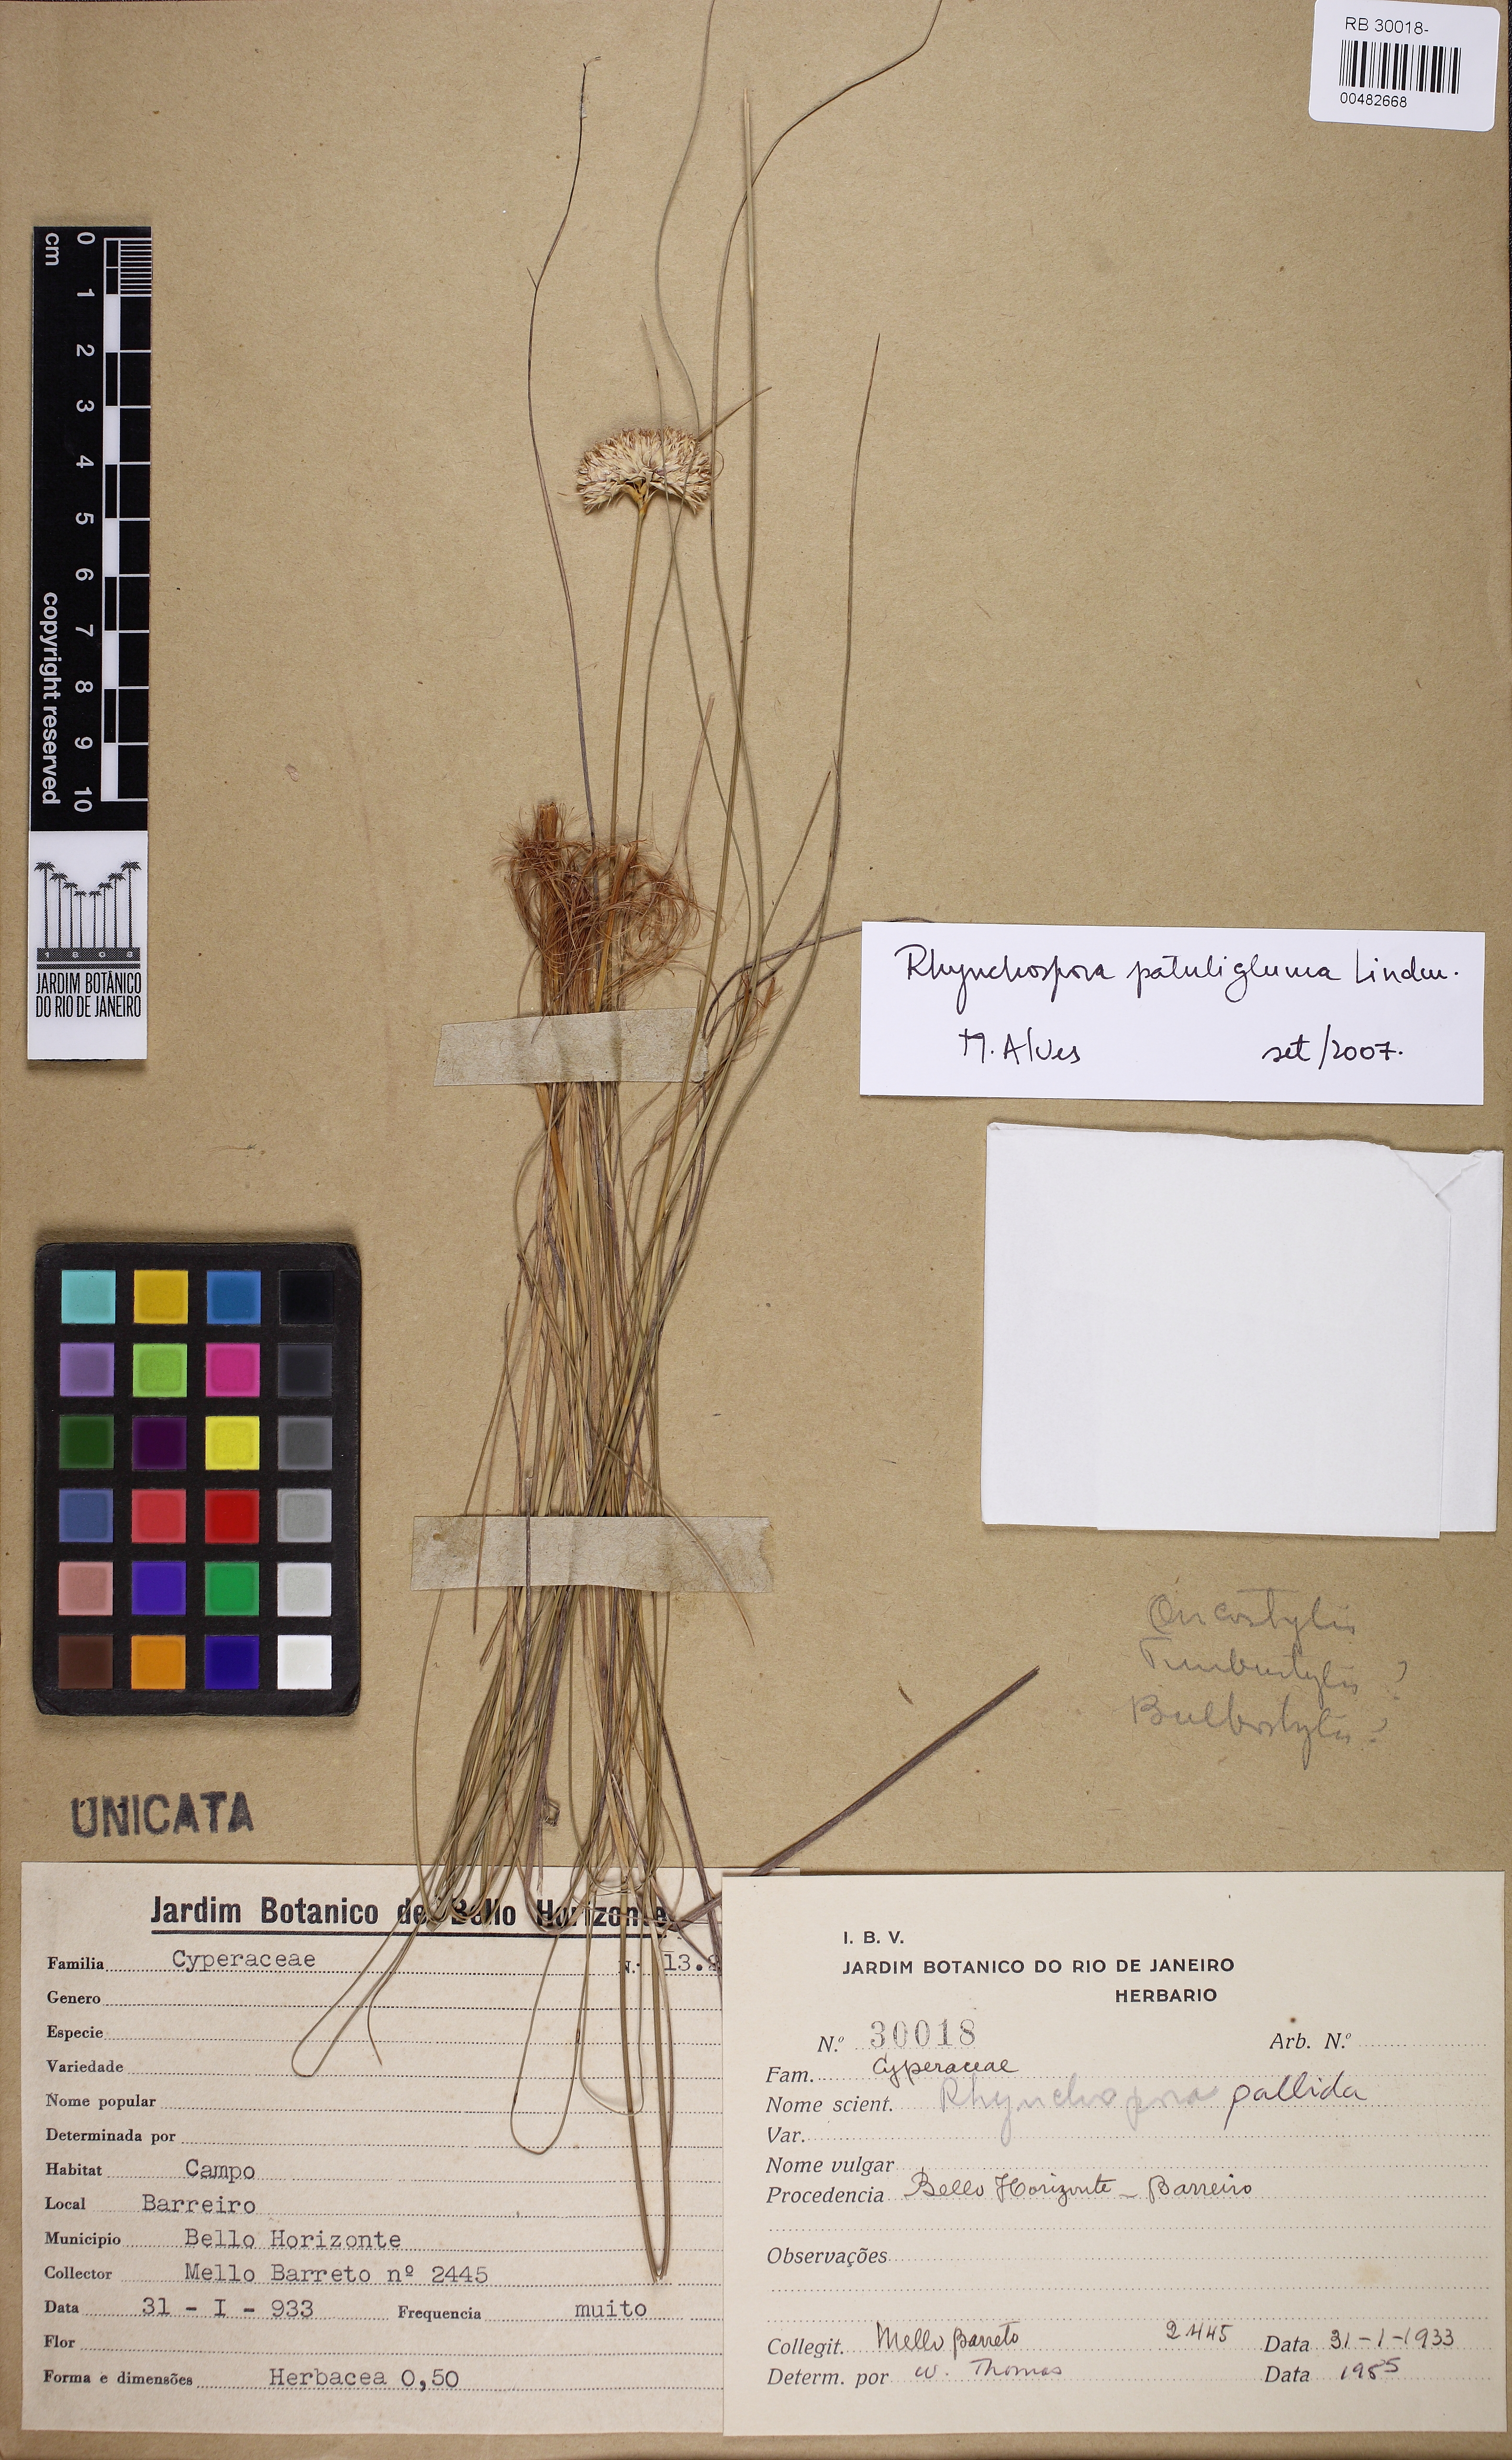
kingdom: Plantae
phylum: Tracheophyta
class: Liliopsida
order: Poales
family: Cyperaceae
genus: Rhynchospora
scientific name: Rhynchospora patuligluma
